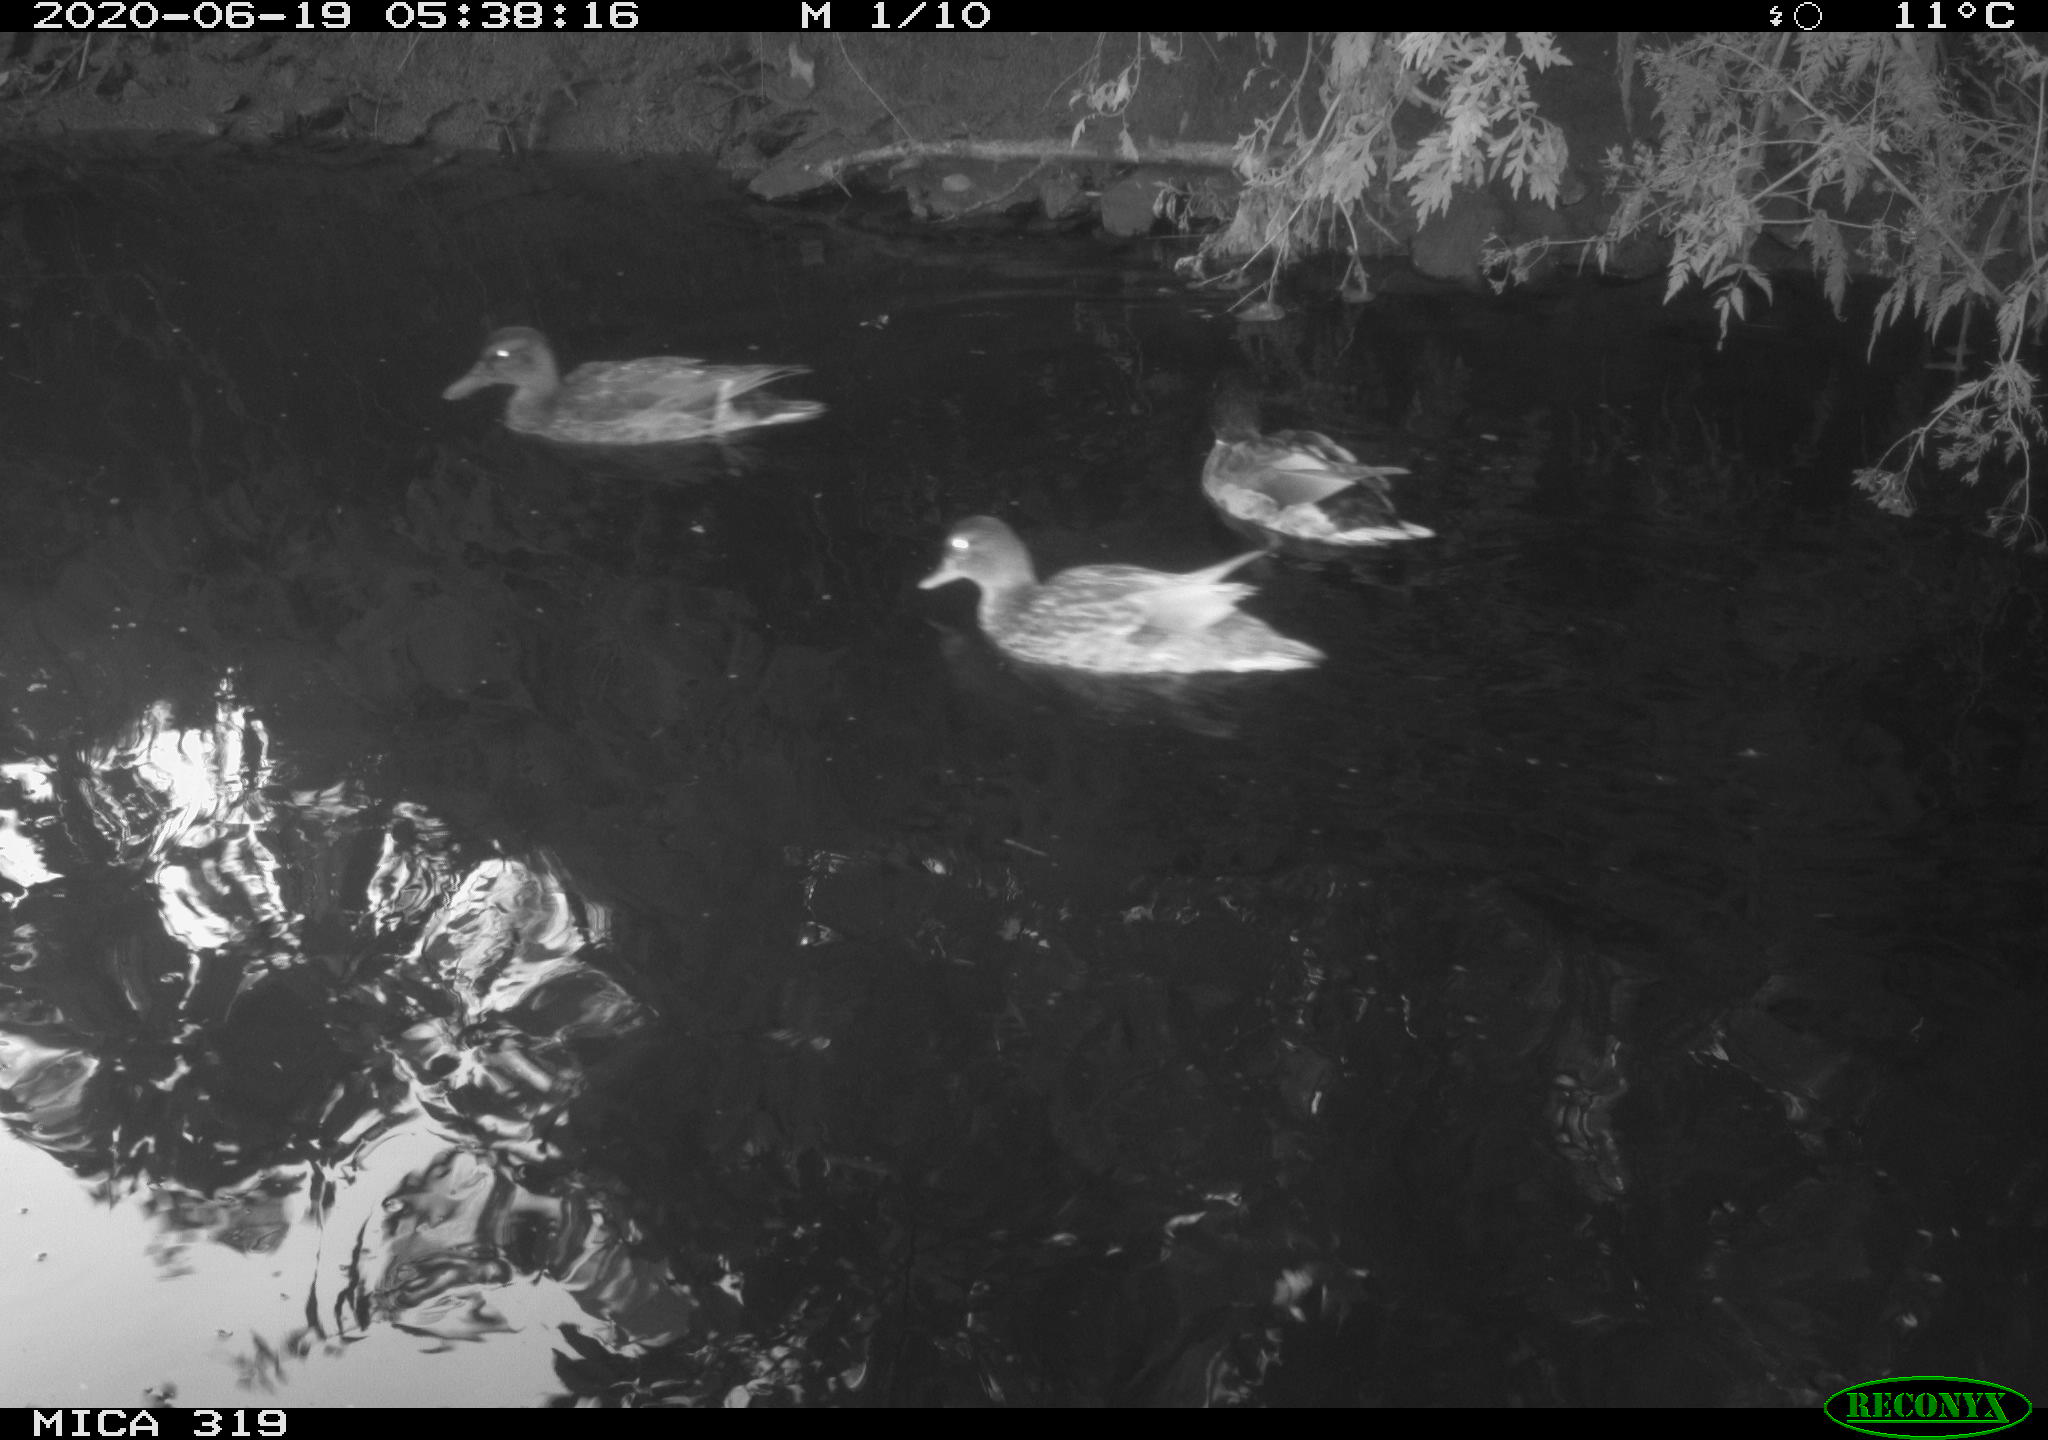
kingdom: Animalia
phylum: Chordata
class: Aves
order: Anseriformes
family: Anatidae
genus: Anas
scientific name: Anas platyrhynchos
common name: Mallard
